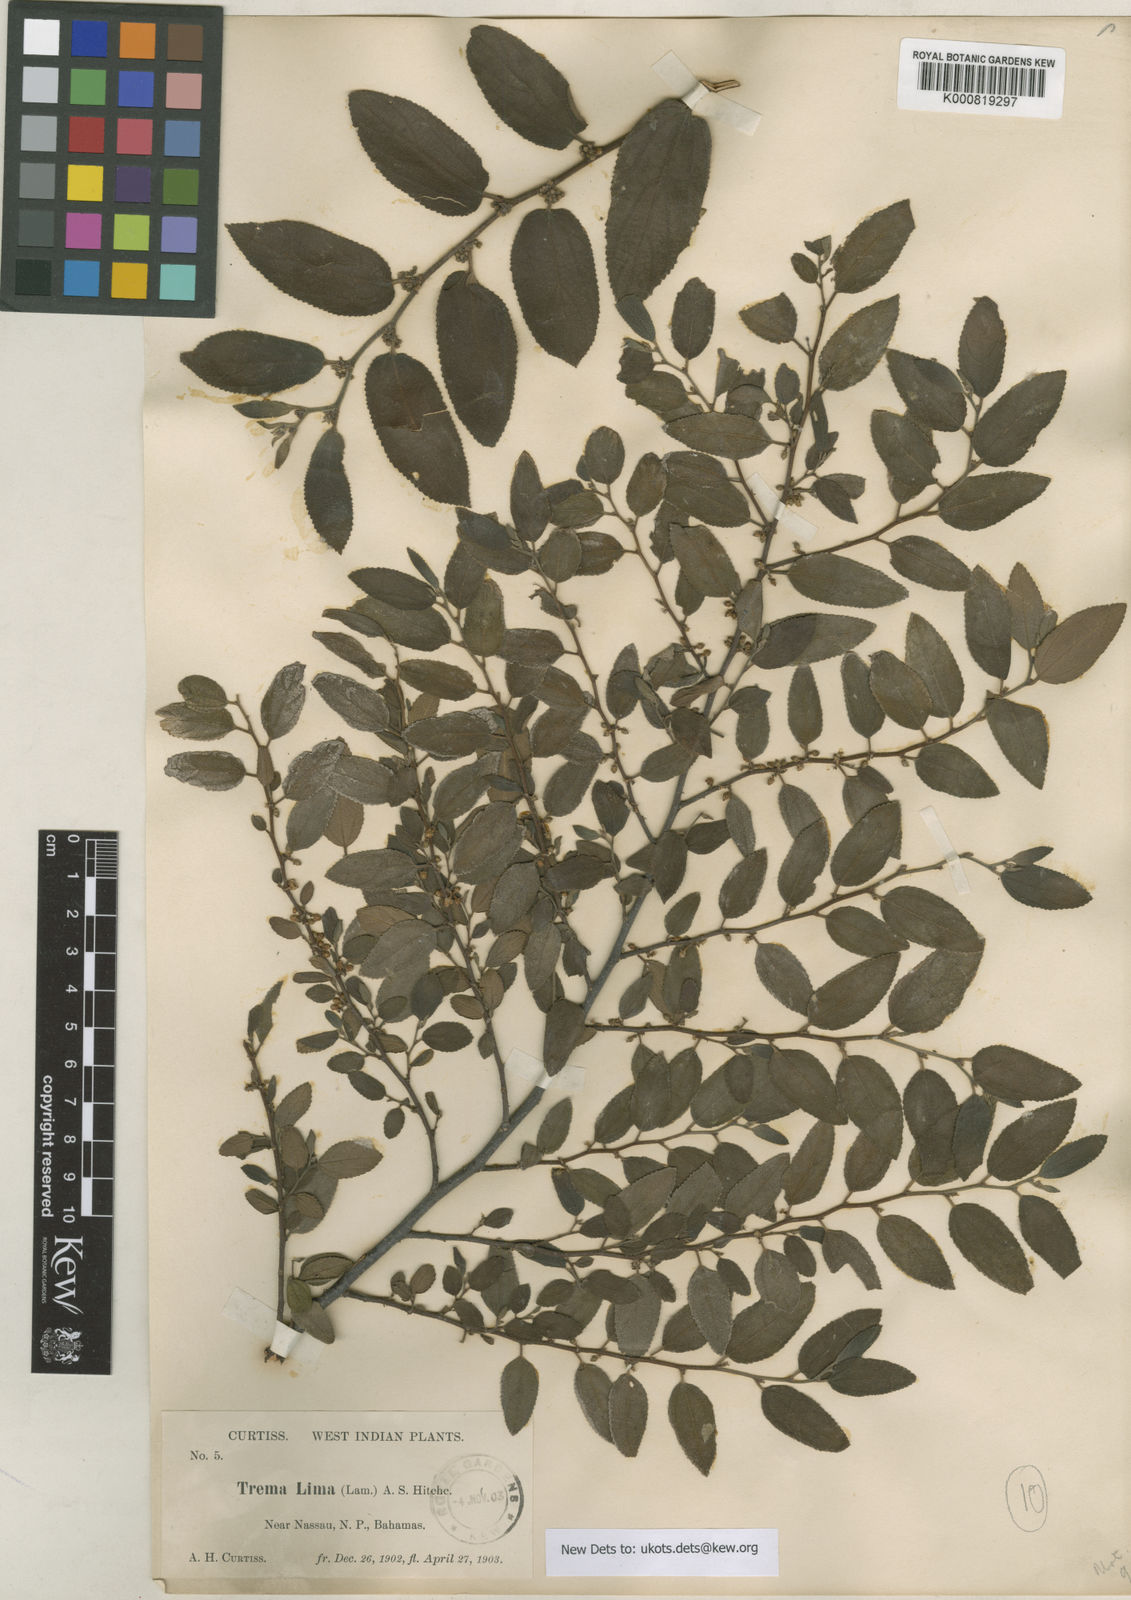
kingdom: Plantae
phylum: Tracheophyta
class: Magnoliopsida
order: Rosales
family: Cannabaceae
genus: Trema
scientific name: Trema lamarckianum
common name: Lamarck's trema
